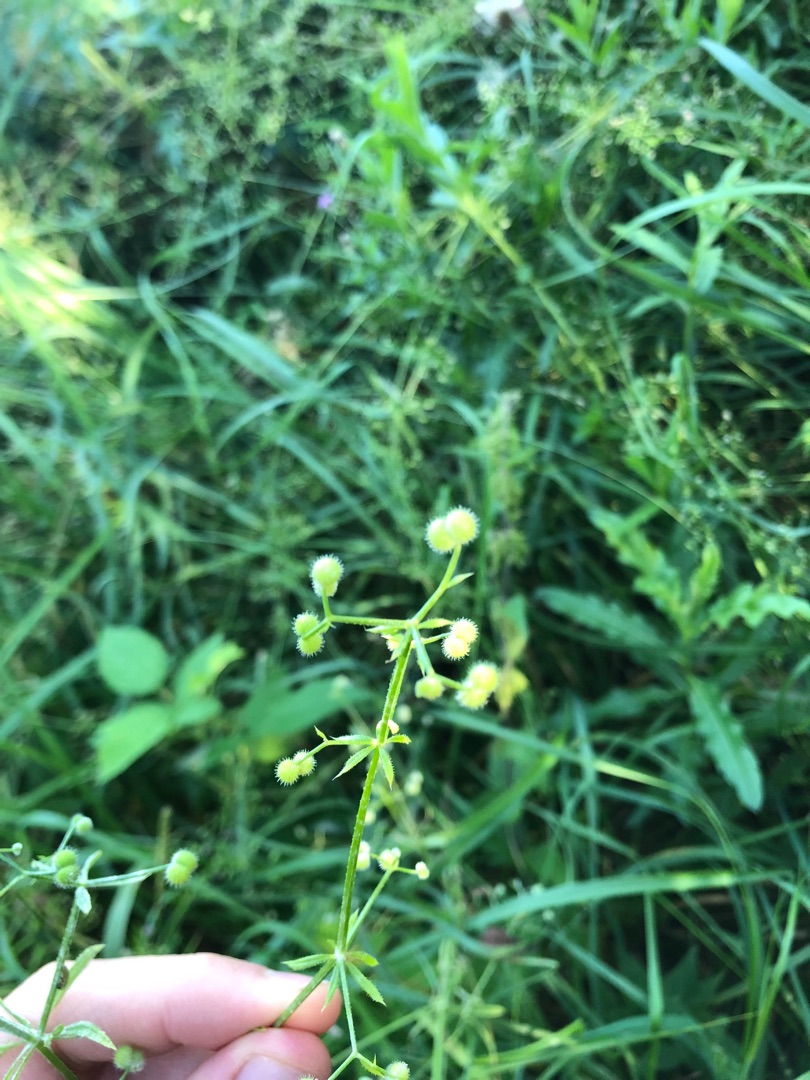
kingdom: Plantae
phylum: Tracheophyta
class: Magnoliopsida
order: Gentianales
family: Rubiaceae
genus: Galium
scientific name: Galium aparine
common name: Burre-snerre
